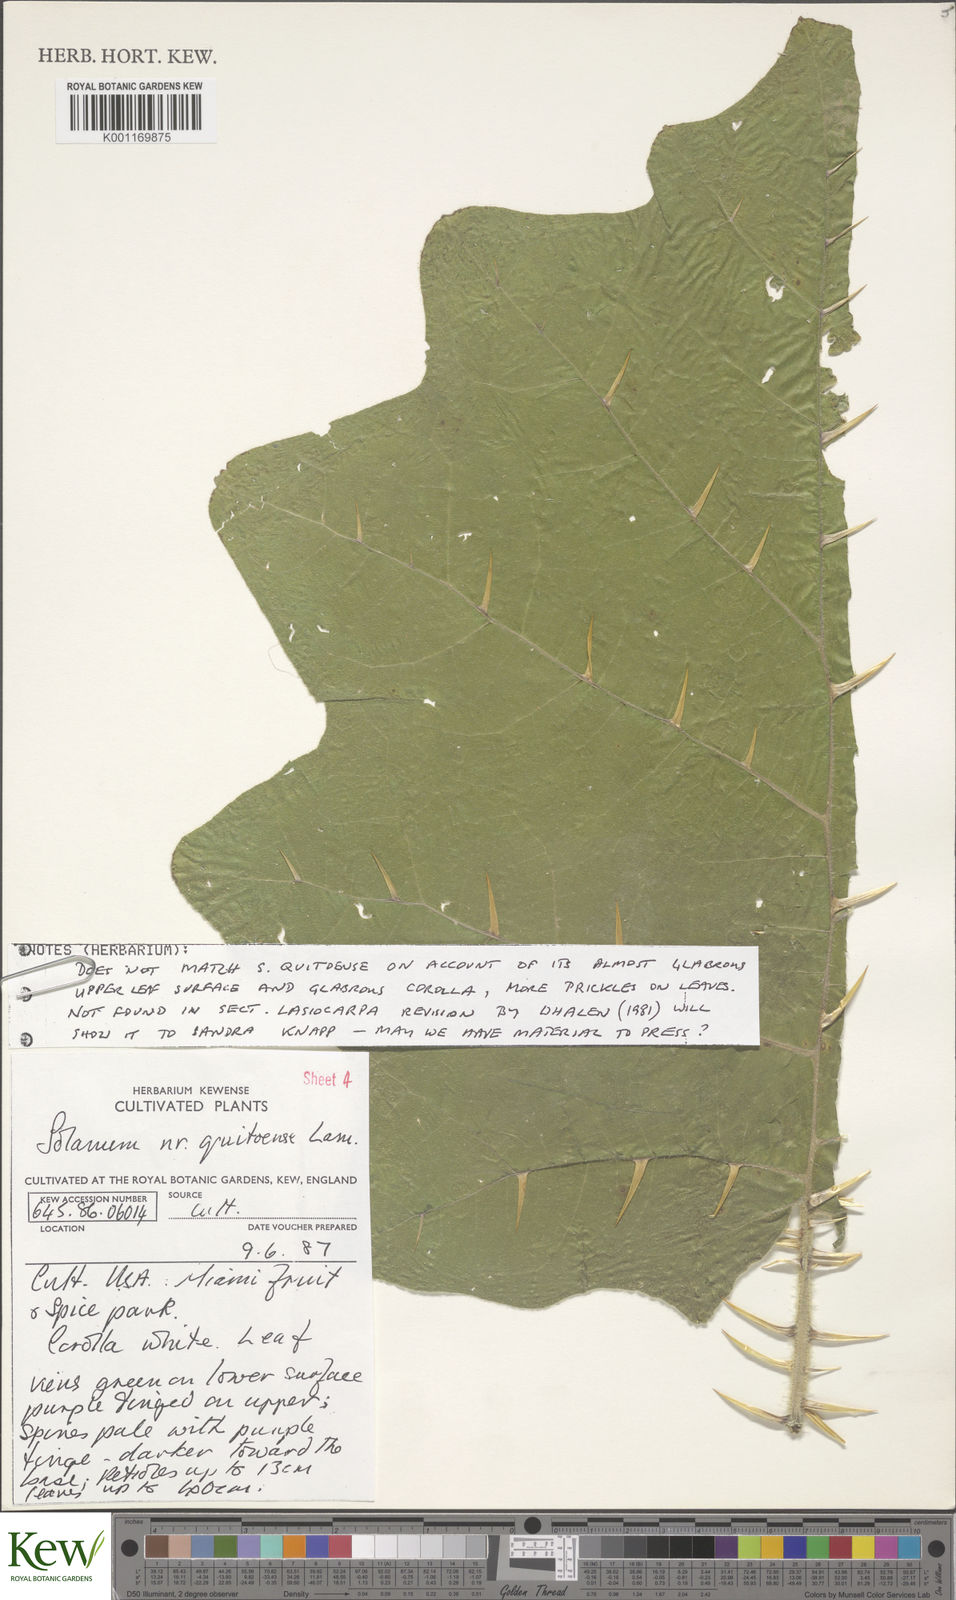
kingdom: Plantae
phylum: Tracheophyta
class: Magnoliopsida
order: Solanales
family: Solanaceae
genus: Solanum
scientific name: Solanum quitoense
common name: Quito-orange
